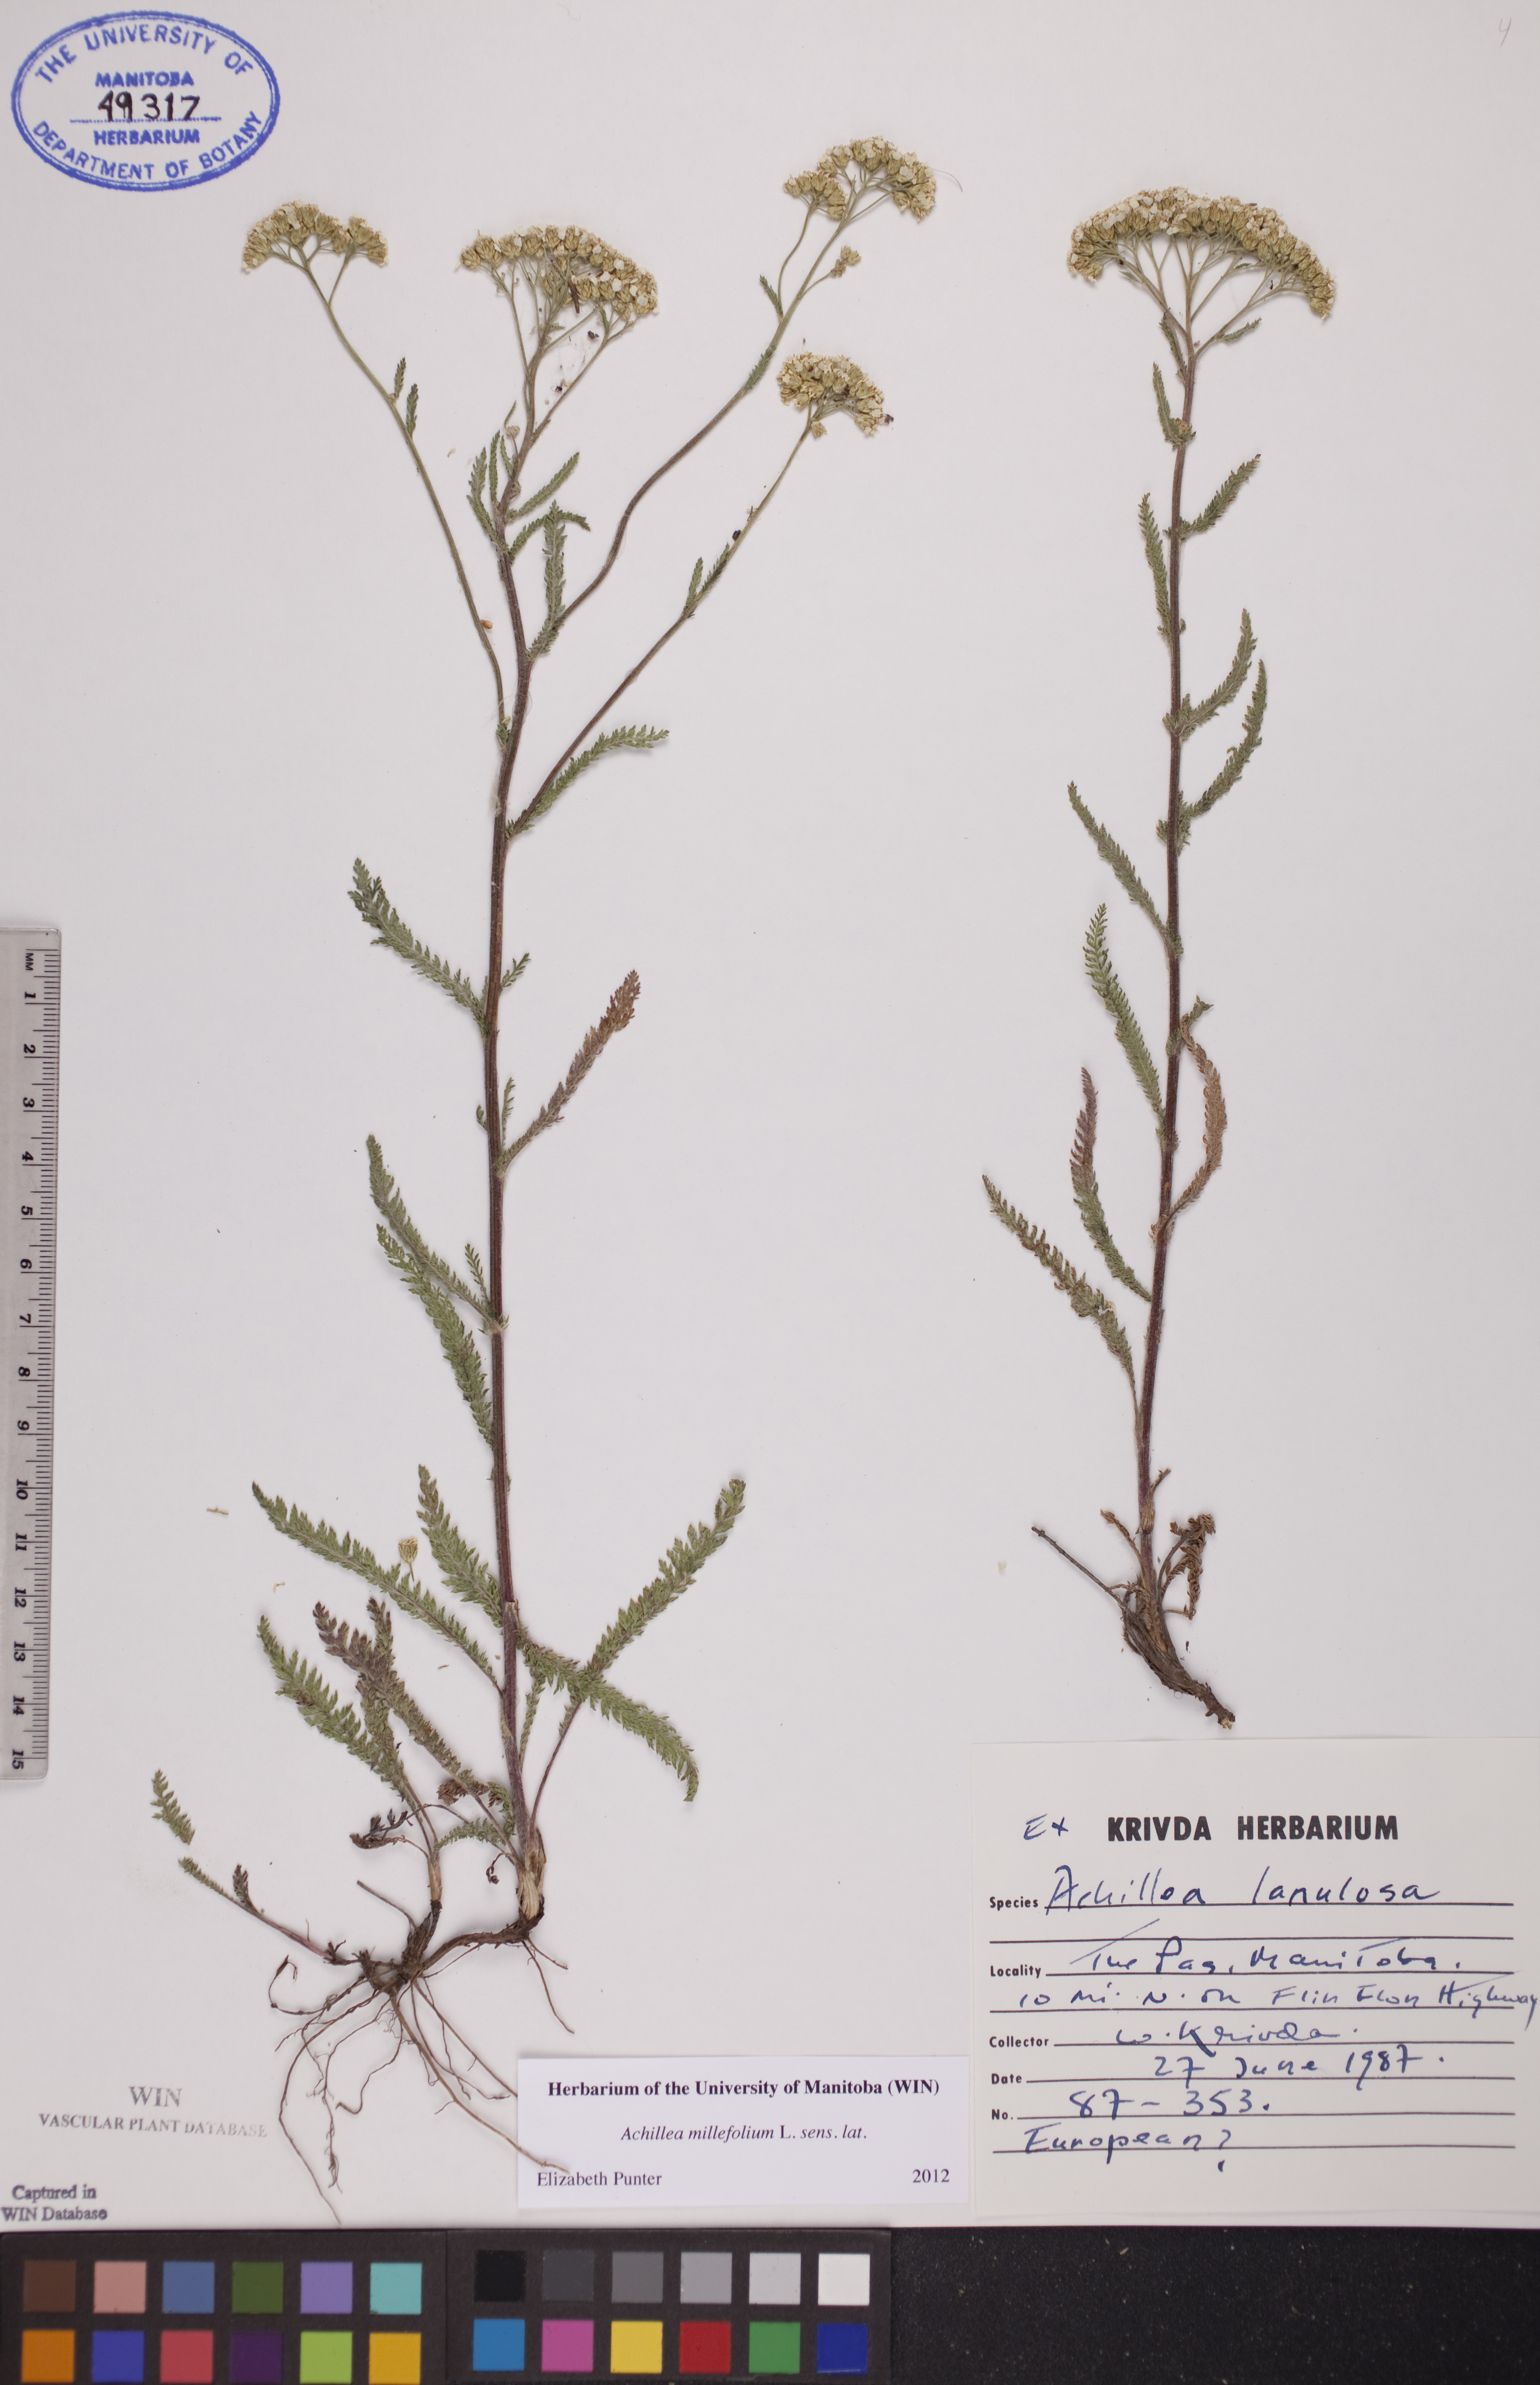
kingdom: Plantae
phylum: Tracheophyta
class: Magnoliopsida
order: Asterales
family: Asteraceae
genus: Achillea
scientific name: Achillea millefolium
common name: Yarrow
